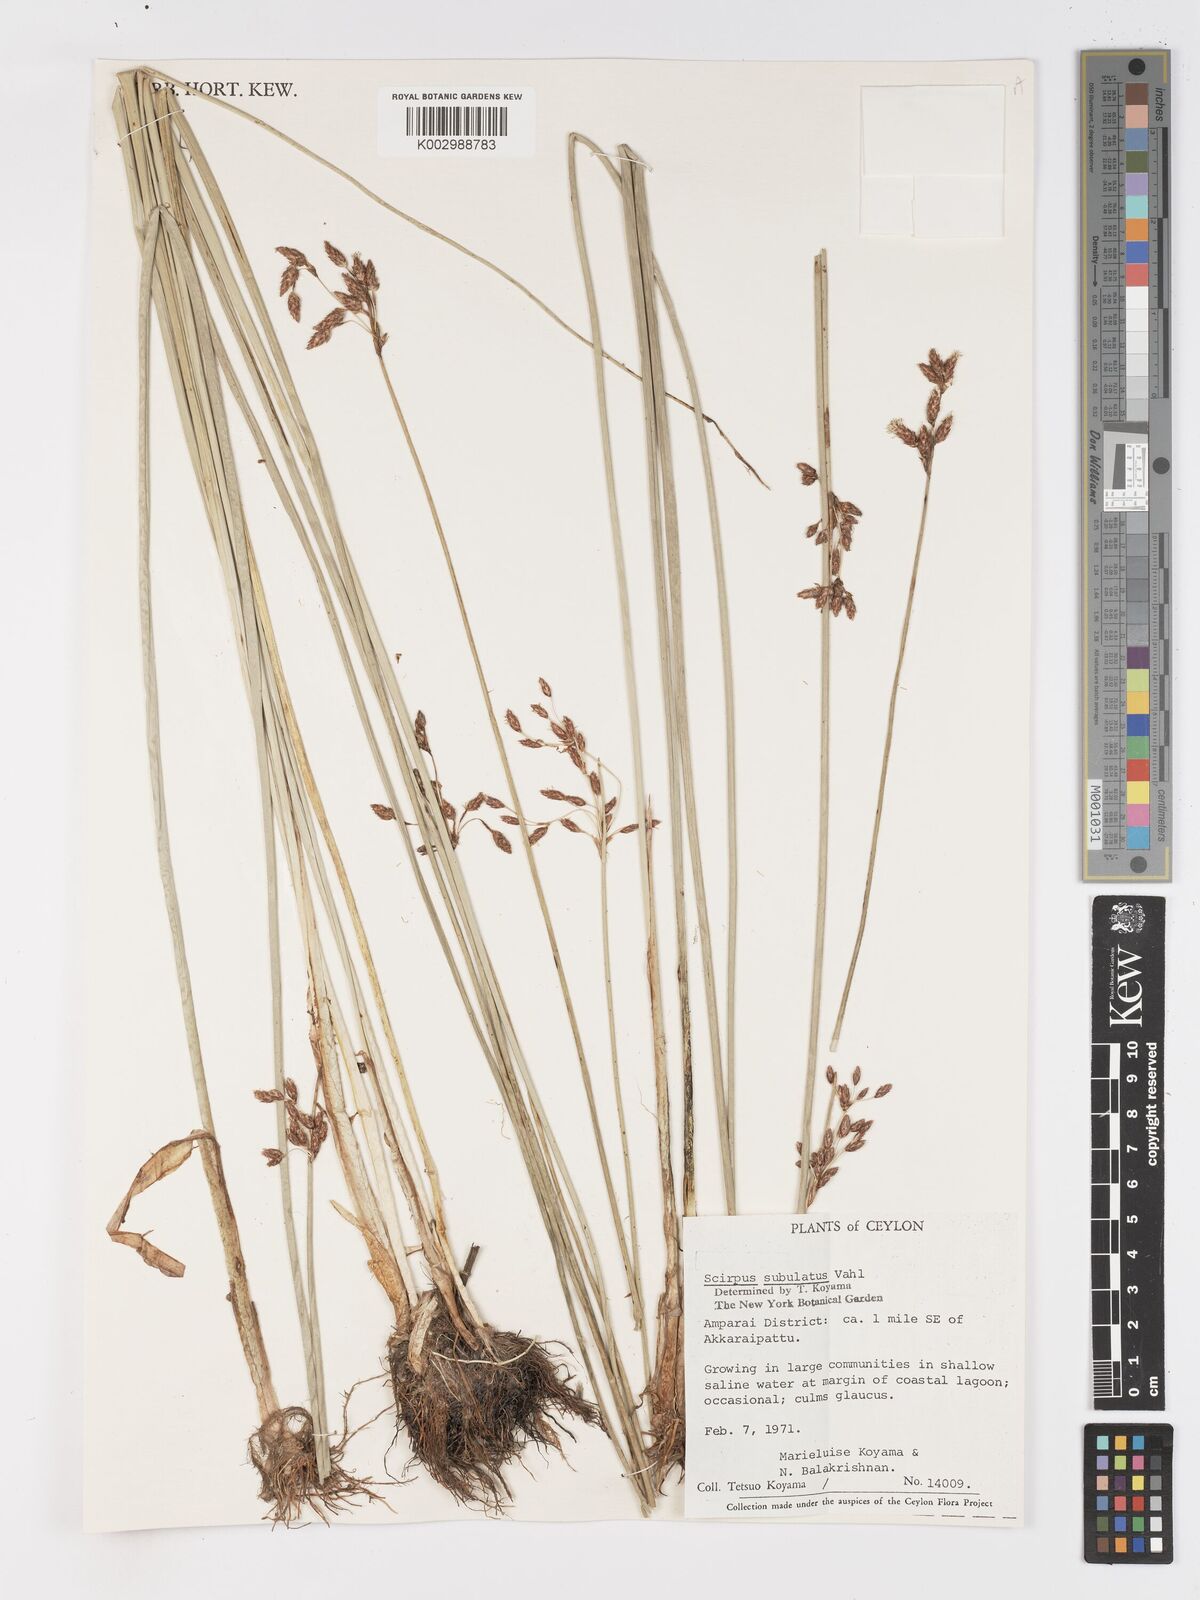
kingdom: Plantae
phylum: Tracheophyta
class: Liliopsida
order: Poales
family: Cyperaceae
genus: Schoenoplectus
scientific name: Schoenoplectus subulatus
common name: Coast club-rush
